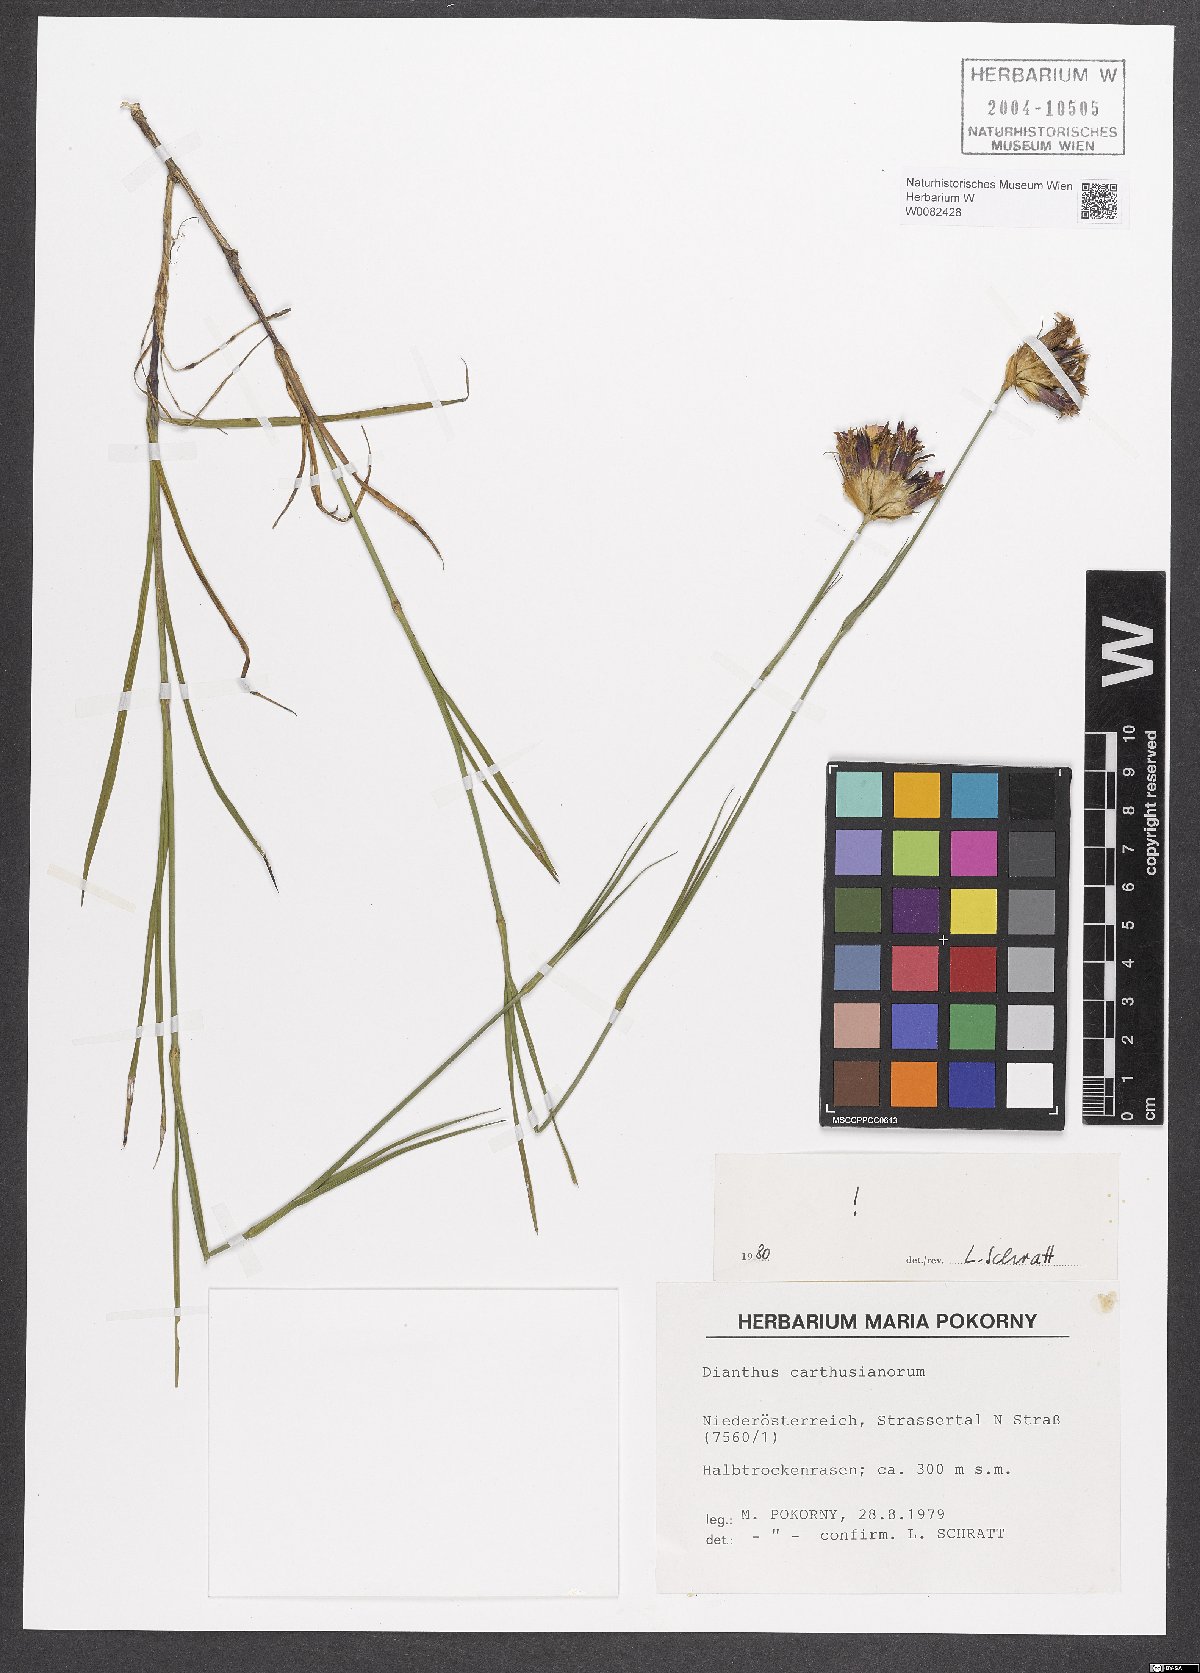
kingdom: Plantae
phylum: Tracheophyta
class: Magnoliopsida
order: Caryophyllales
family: Caryophyllaceae
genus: Dianthus
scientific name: Dianthus carthusianorum
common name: Carthusian pink
